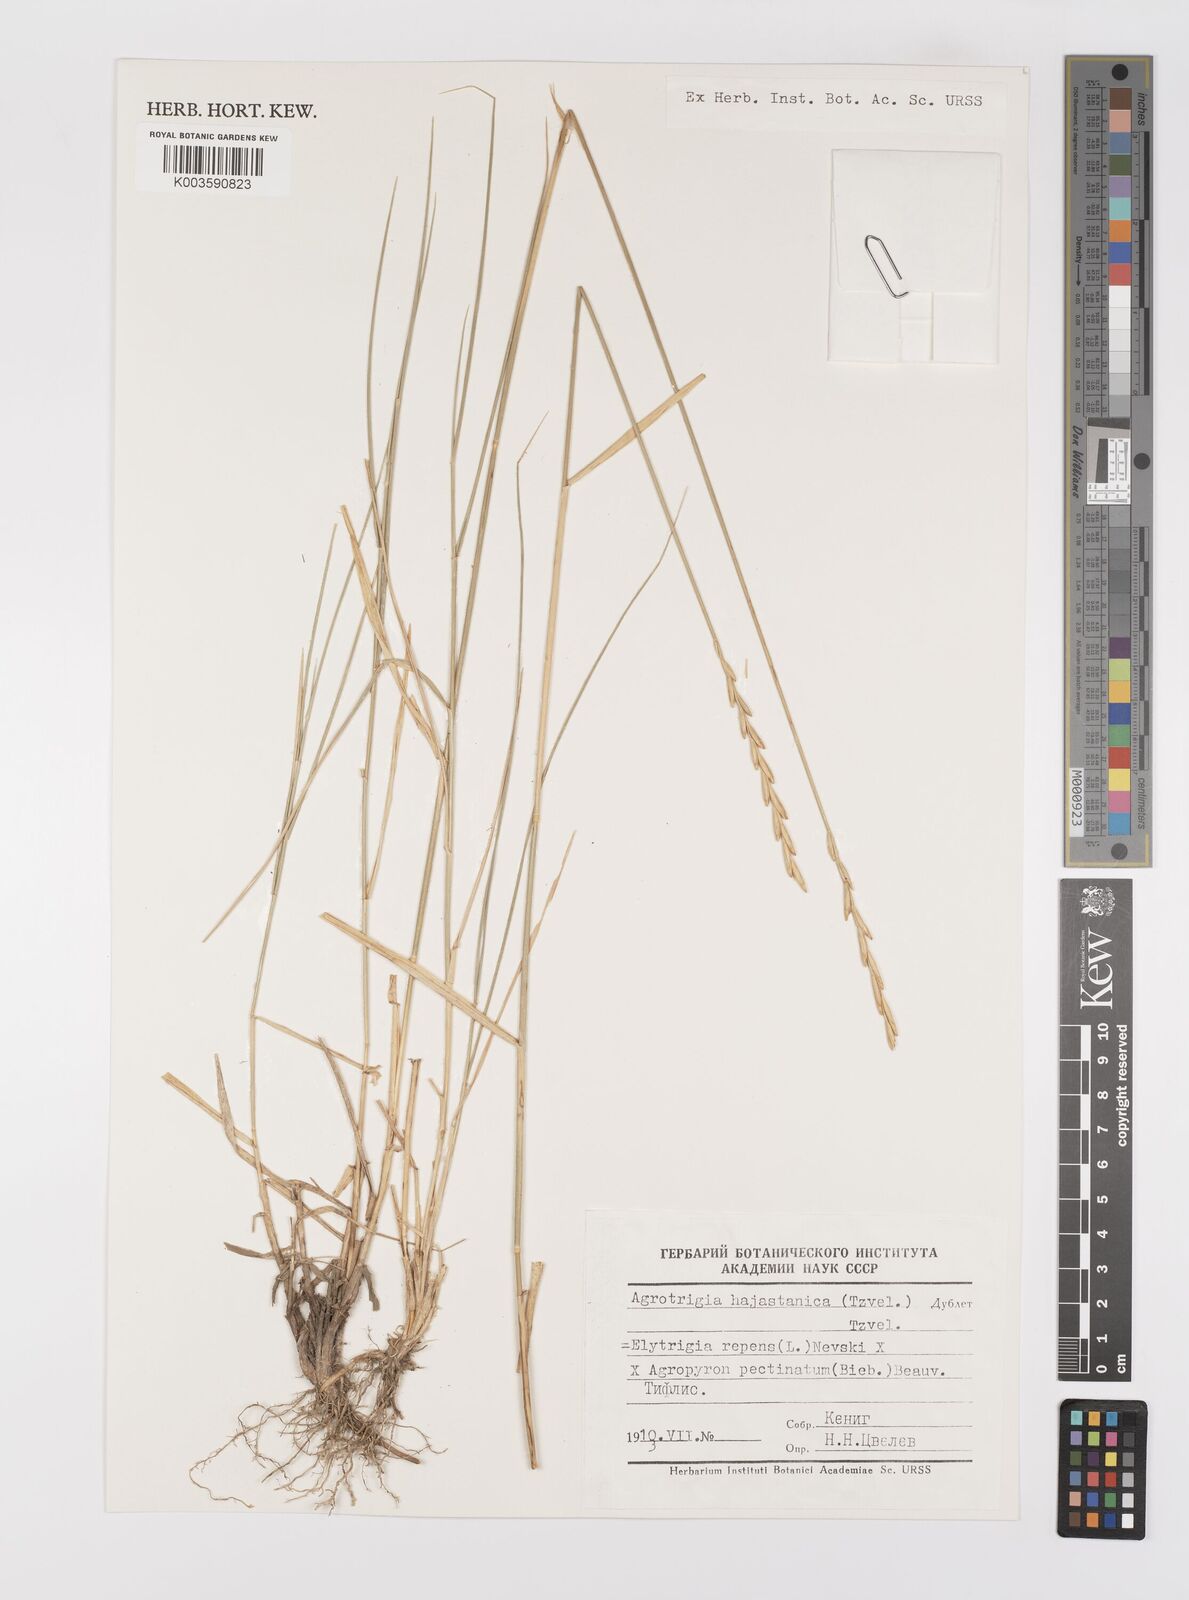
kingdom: Plantae
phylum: Tracheophyta
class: Liliopsida
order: Poales
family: Poaceae
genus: Elyhordeum
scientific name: Elyhordeum
